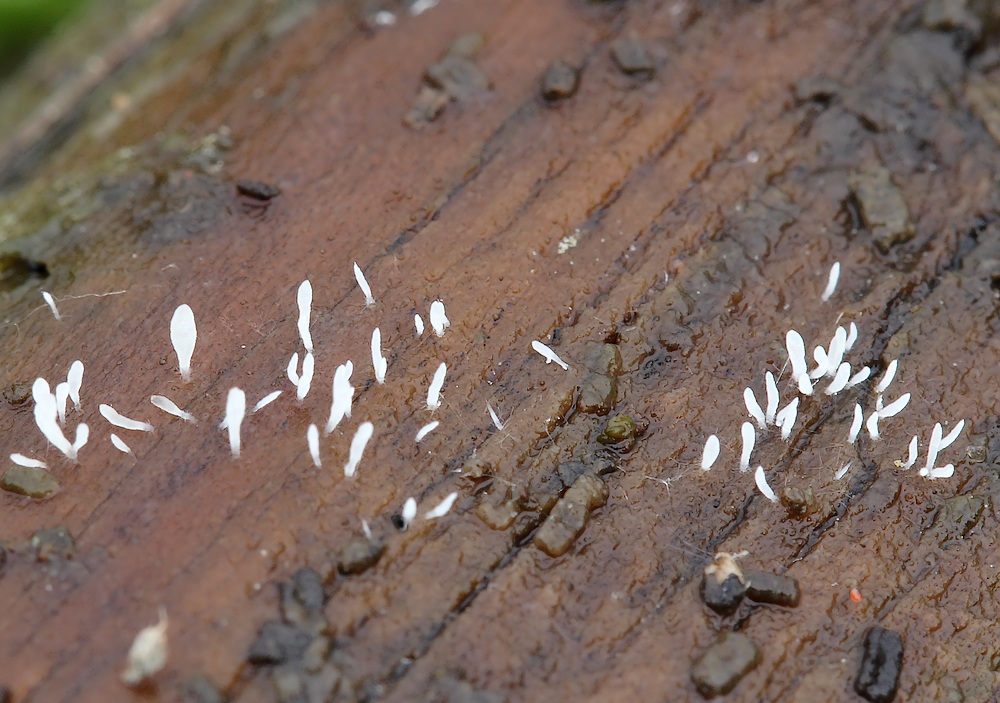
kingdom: Fungi
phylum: Basidiomycota
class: Agaricomycetes
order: Hymenochaetales
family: Rickenellaceae
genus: Bryopistillaria
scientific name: Bryopistillaria sagittiformis
